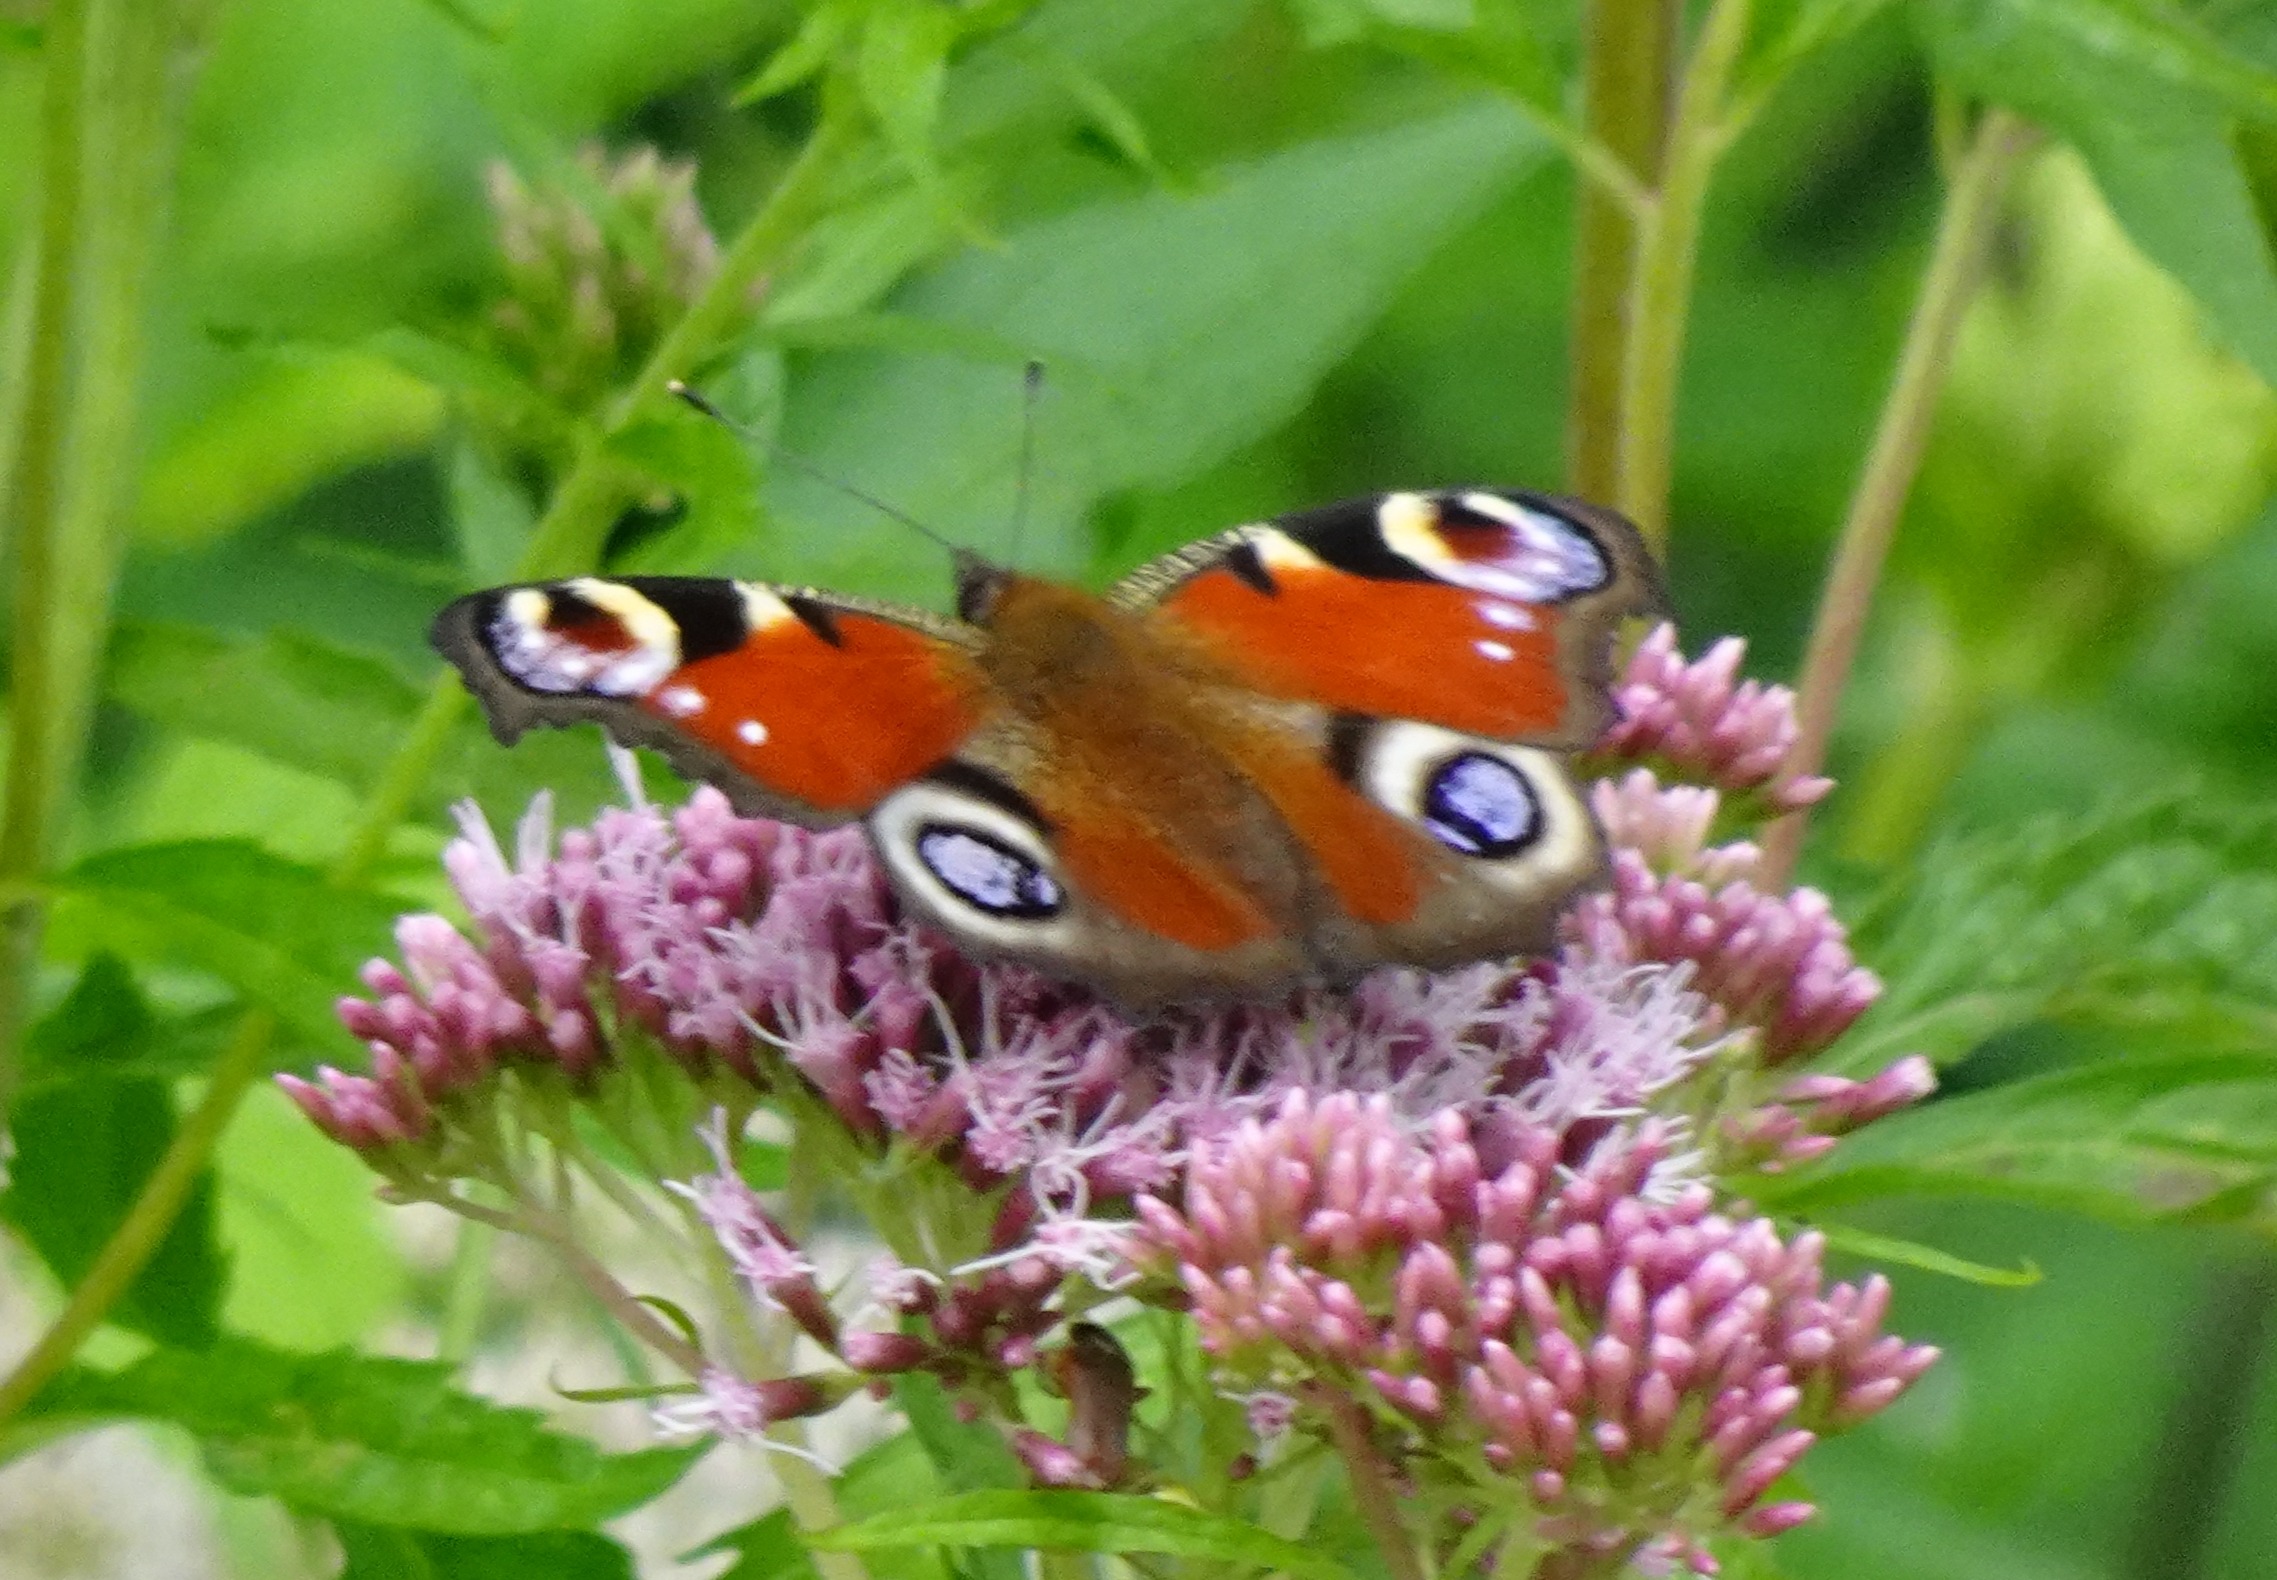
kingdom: Animalia
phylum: Arthropoda
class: Insecta
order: Lepidoptera
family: Nymphalidae
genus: Aglais
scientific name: Aglais io
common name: Dagpåfugleøje
